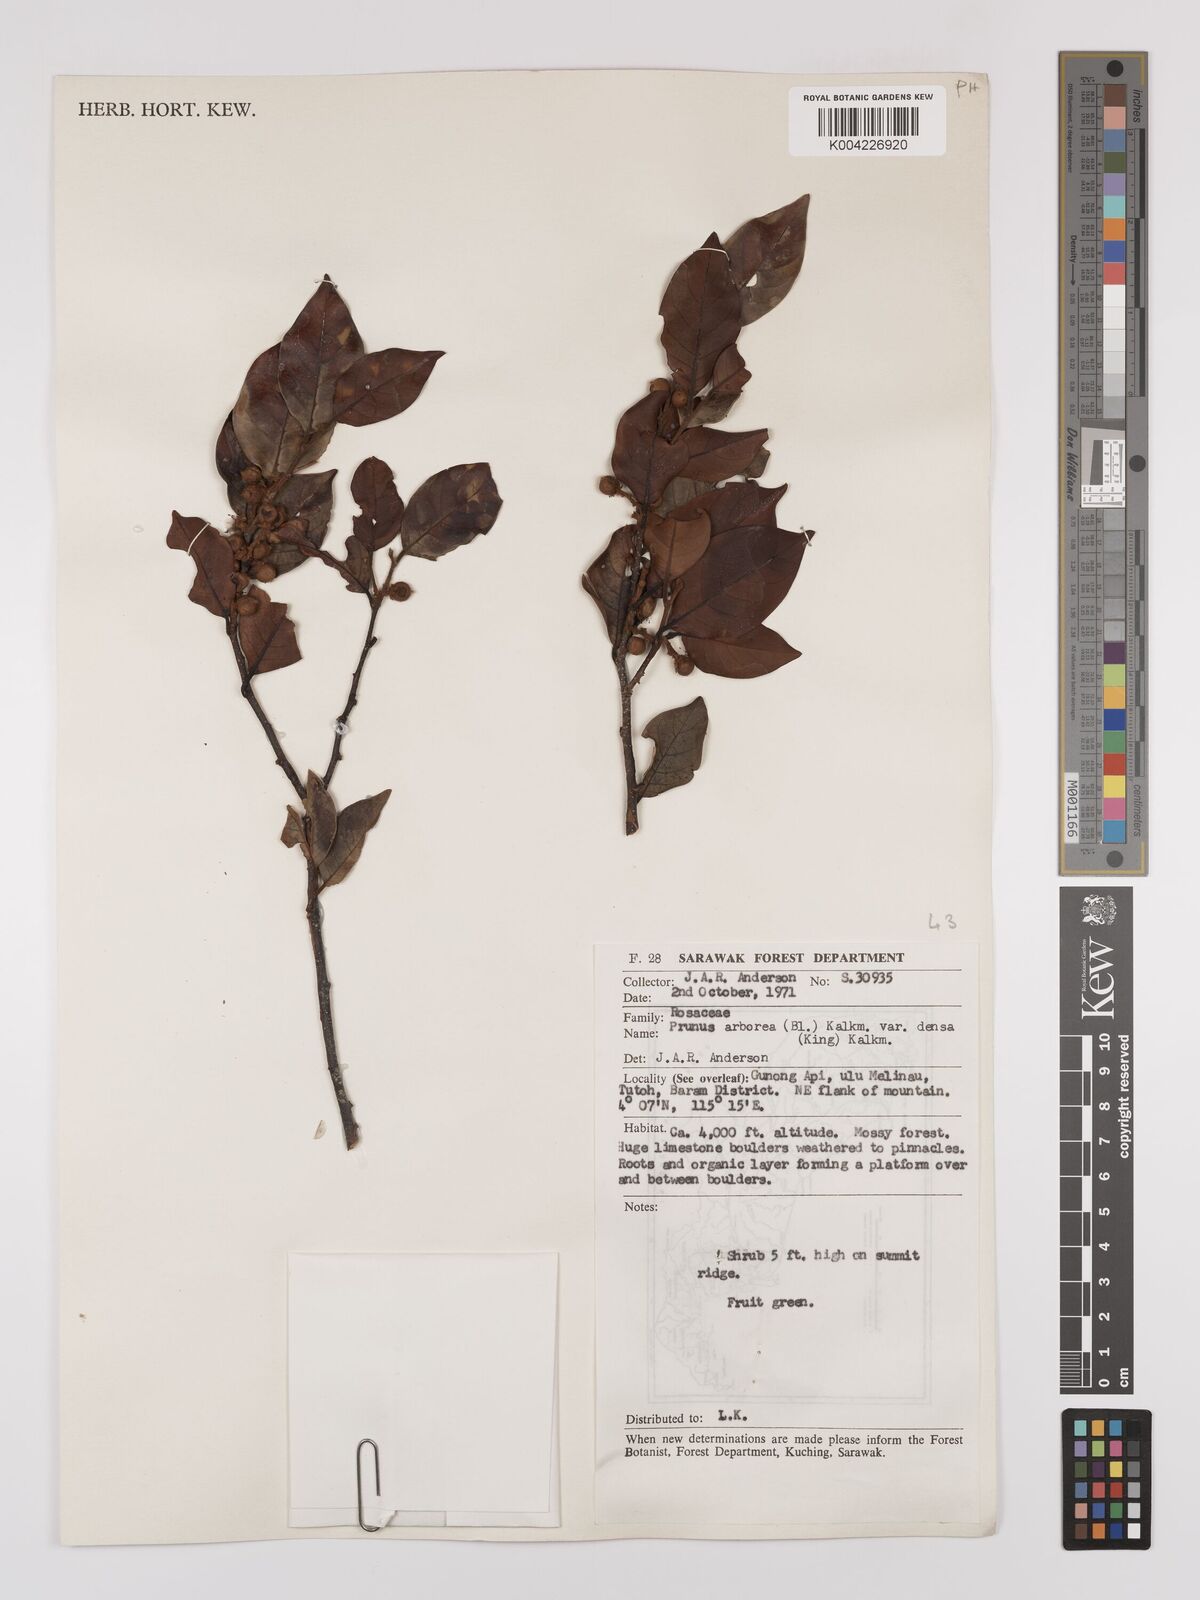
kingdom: Plantae
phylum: Tracheophyta
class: Magnoliopsida
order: Rosales
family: Rosaceae
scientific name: Rosaceae
